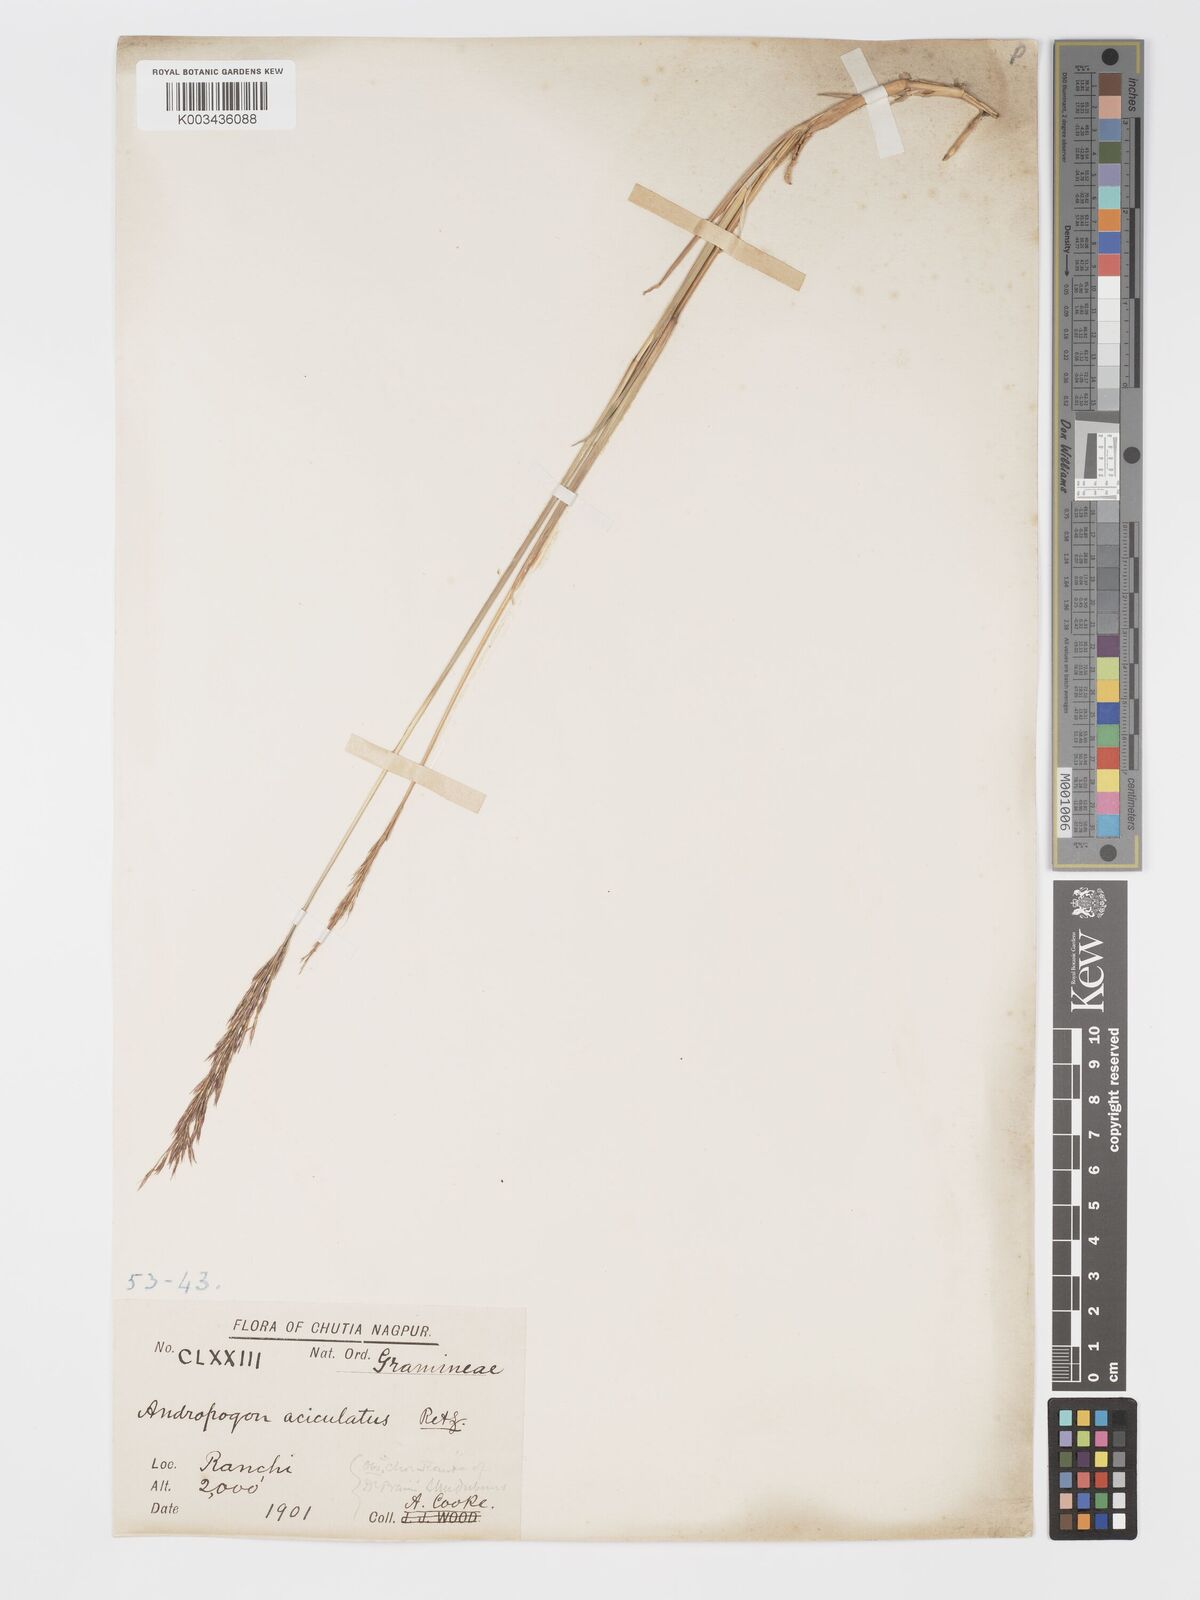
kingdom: Plantae
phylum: Tracheophyta
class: Liliopsida
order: Poales
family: Poaceae
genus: Chrysopogon
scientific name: Chrysopogon aciculatus
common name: Pilipiliula
